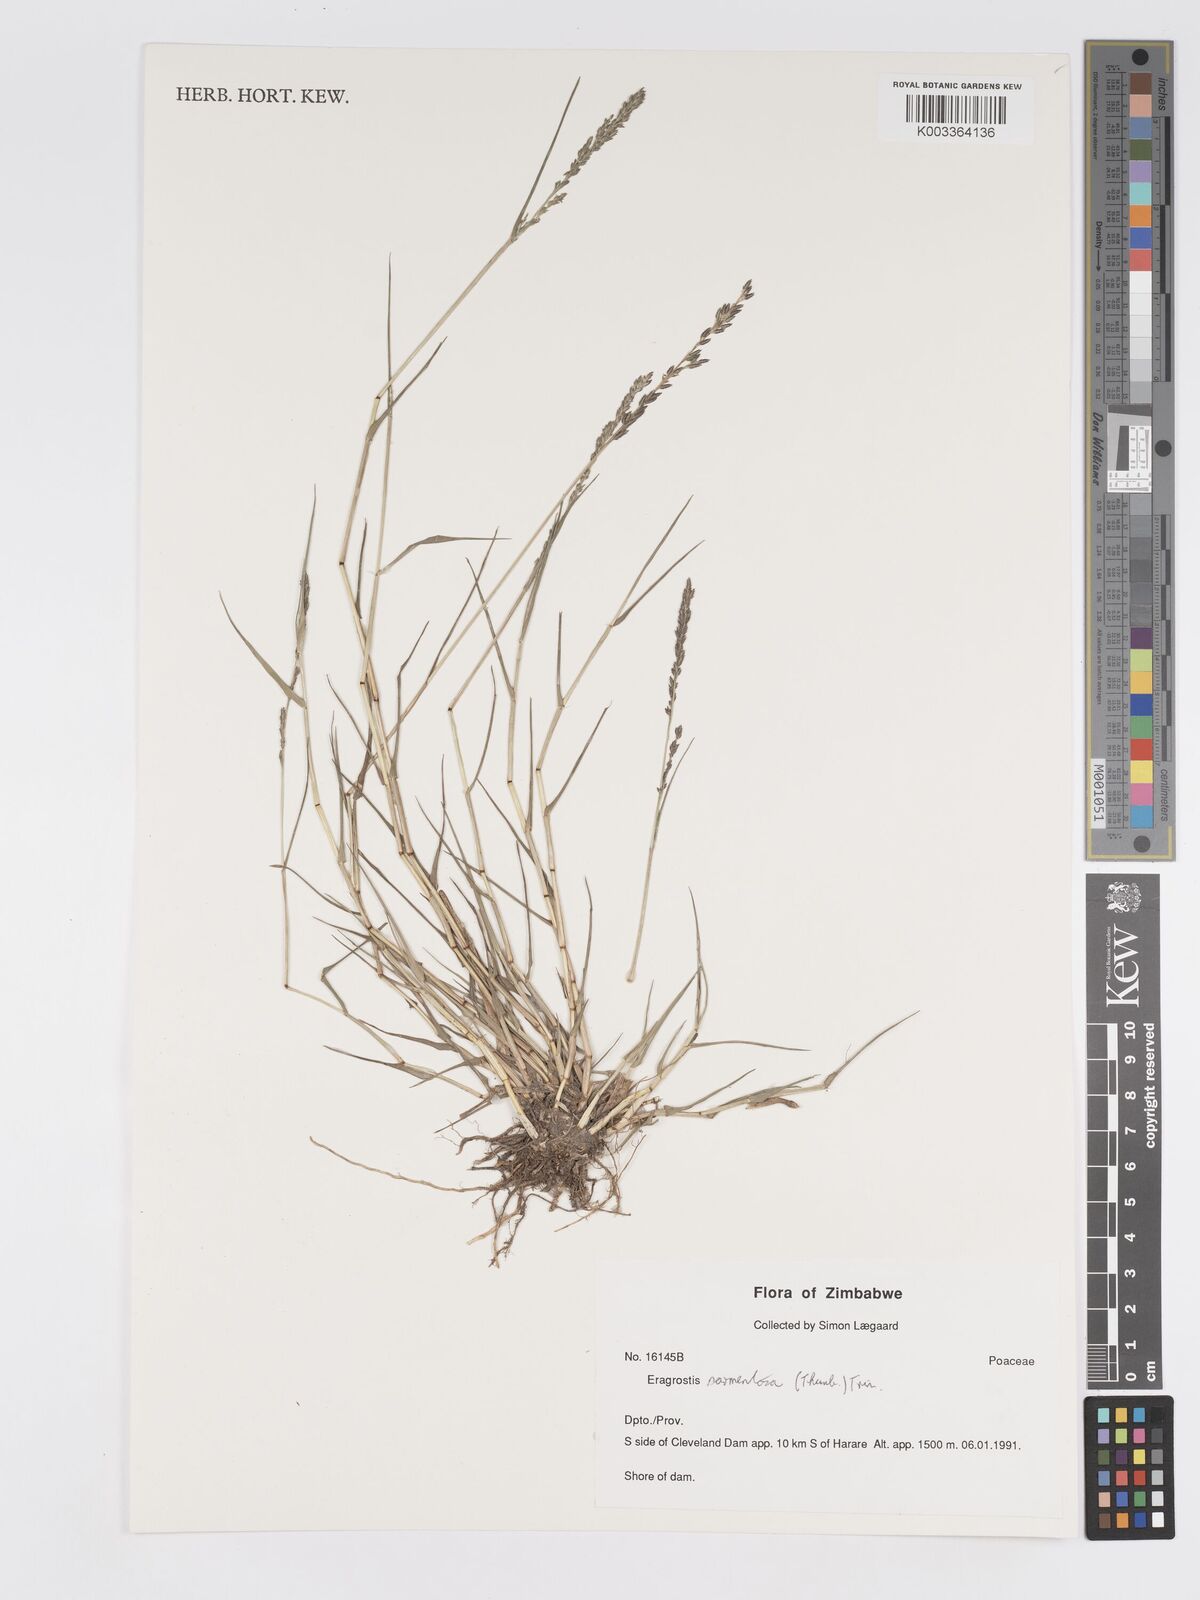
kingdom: Plantae
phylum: Tracheophyta
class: Liliopsida
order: Poales
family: Poaceae
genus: Eragrostis
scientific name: Eragrostis sarmentosa
